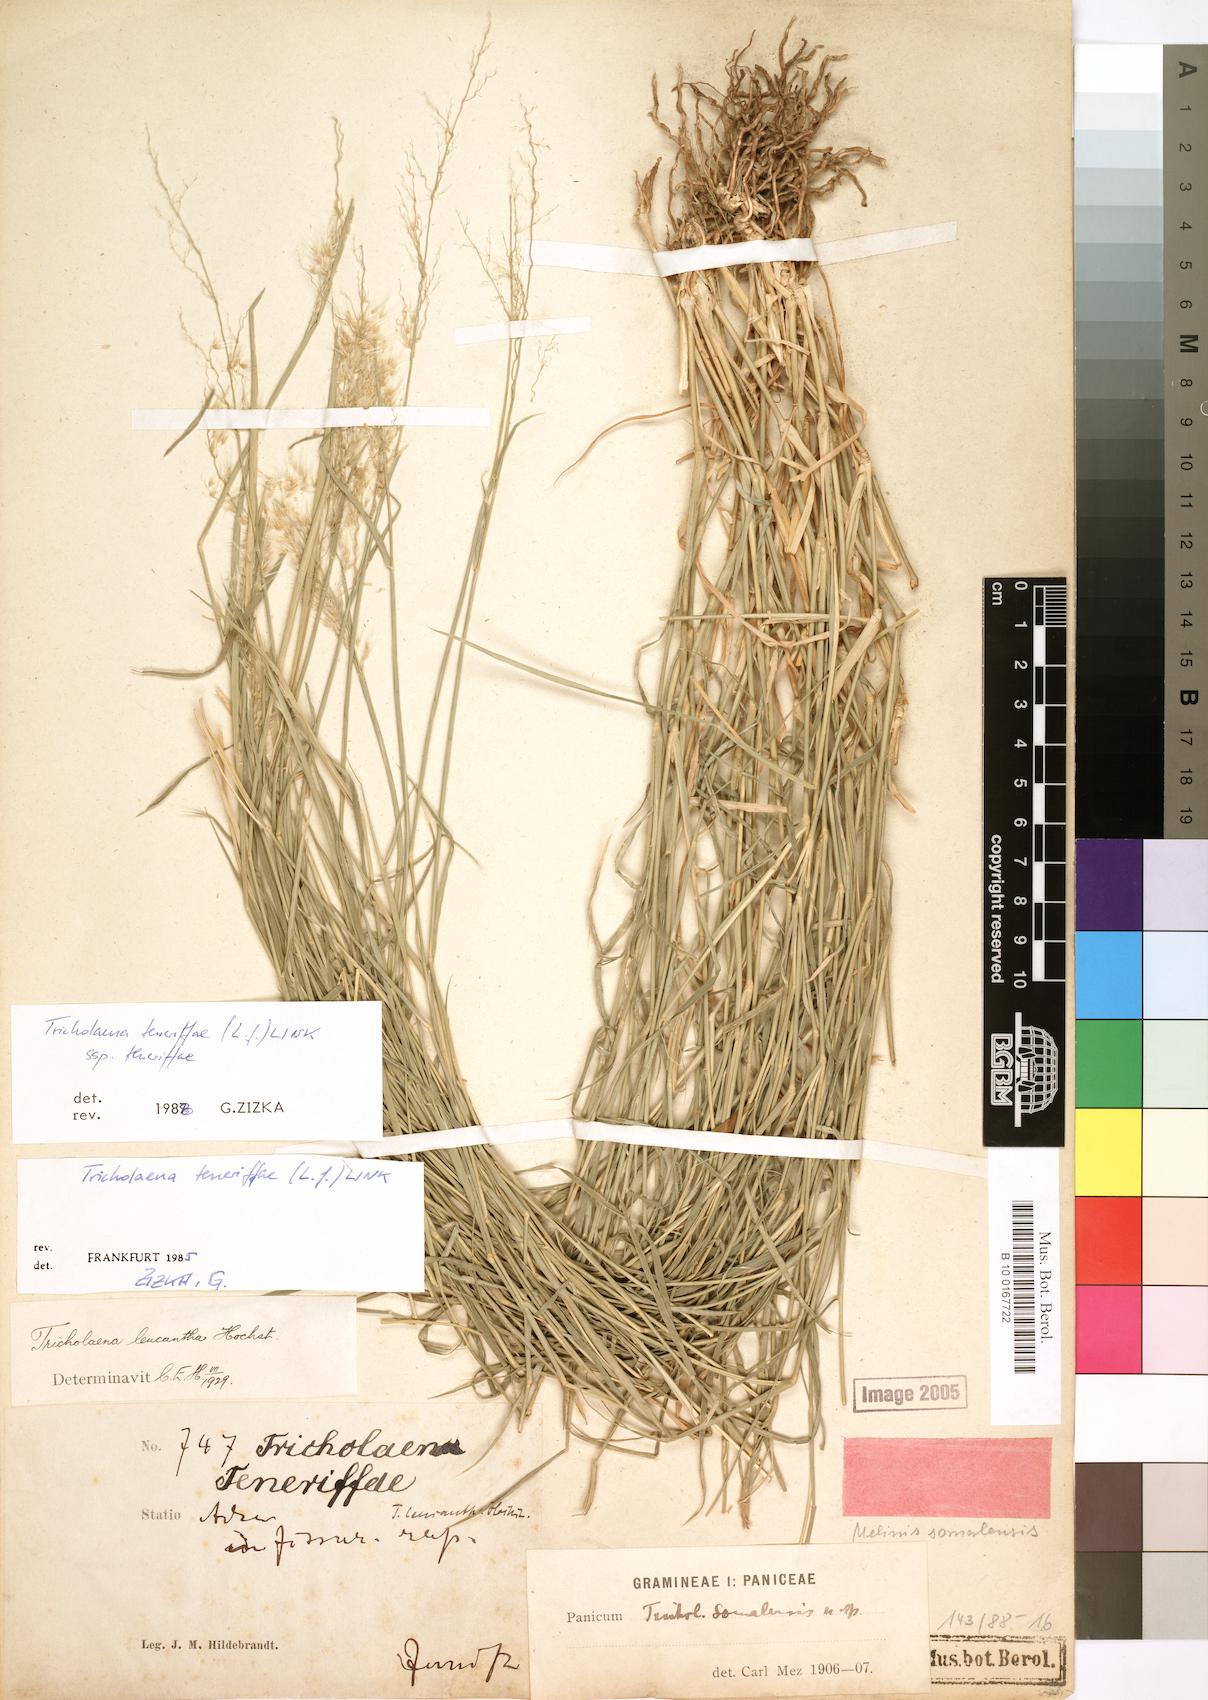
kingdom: Plantae
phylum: Tracheophyta
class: Liliopsida
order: Poales
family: Poaceae
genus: Tricholaena
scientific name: Tricholaena teneriffae
